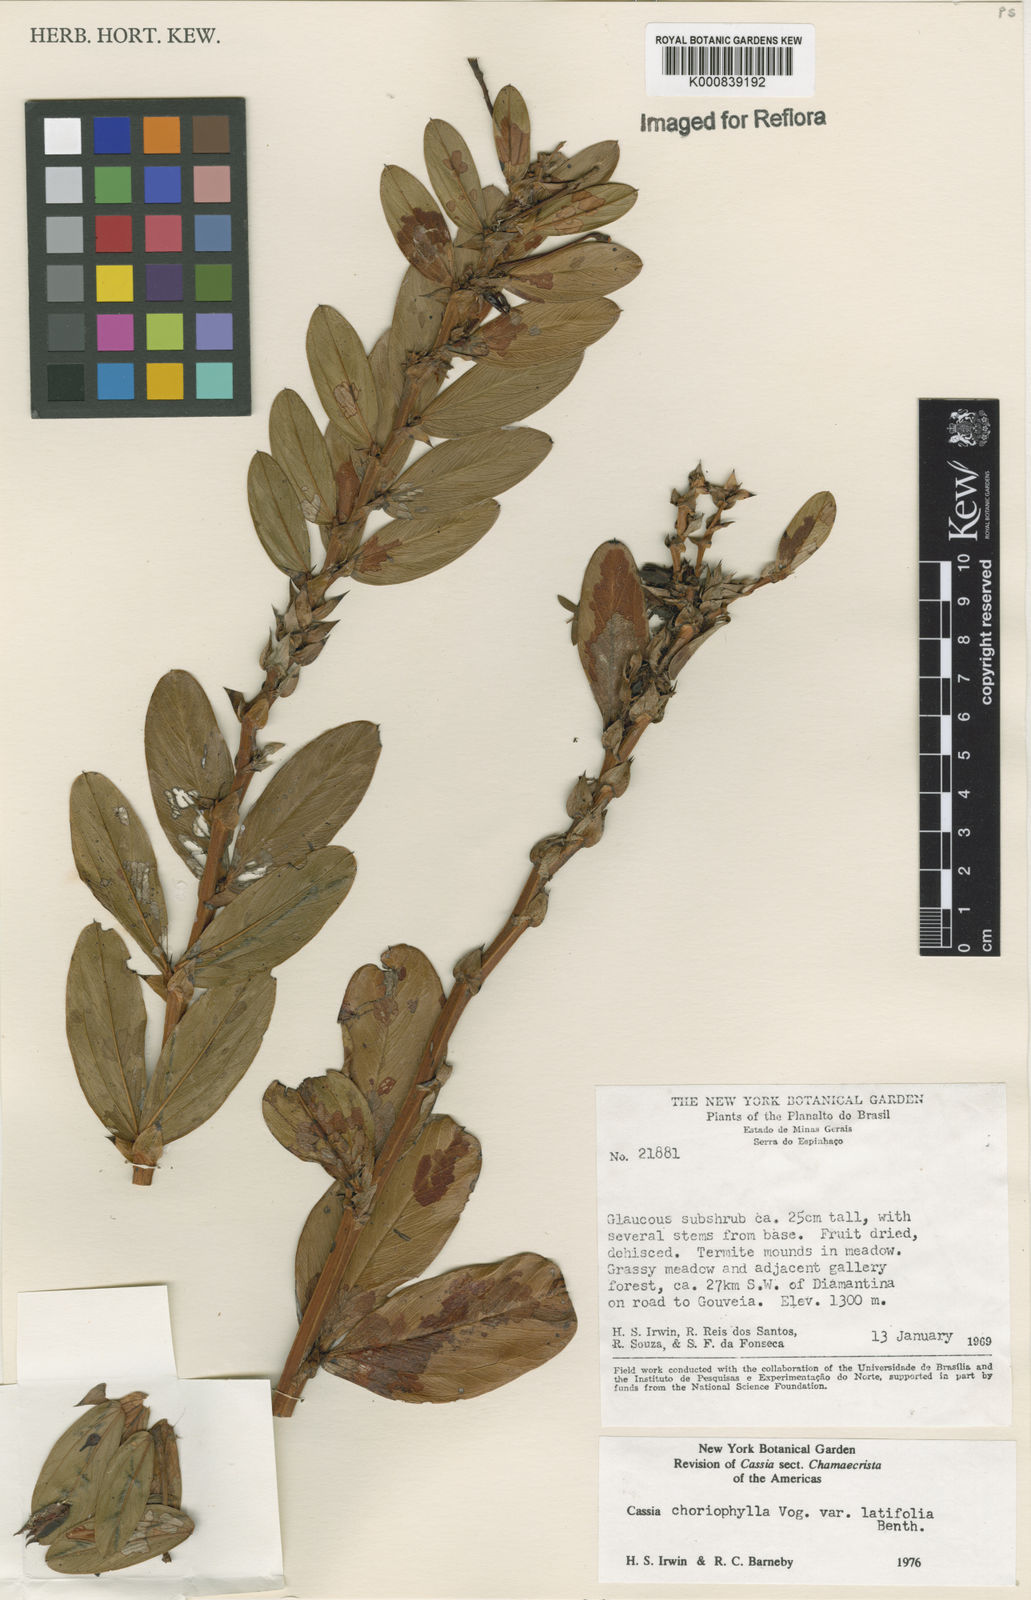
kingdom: Plantae
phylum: Tracheophyta
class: Magnoliopsida
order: Fabales
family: Fabaceae
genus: Chamaecrista
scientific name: Chamaecrista latifolia
